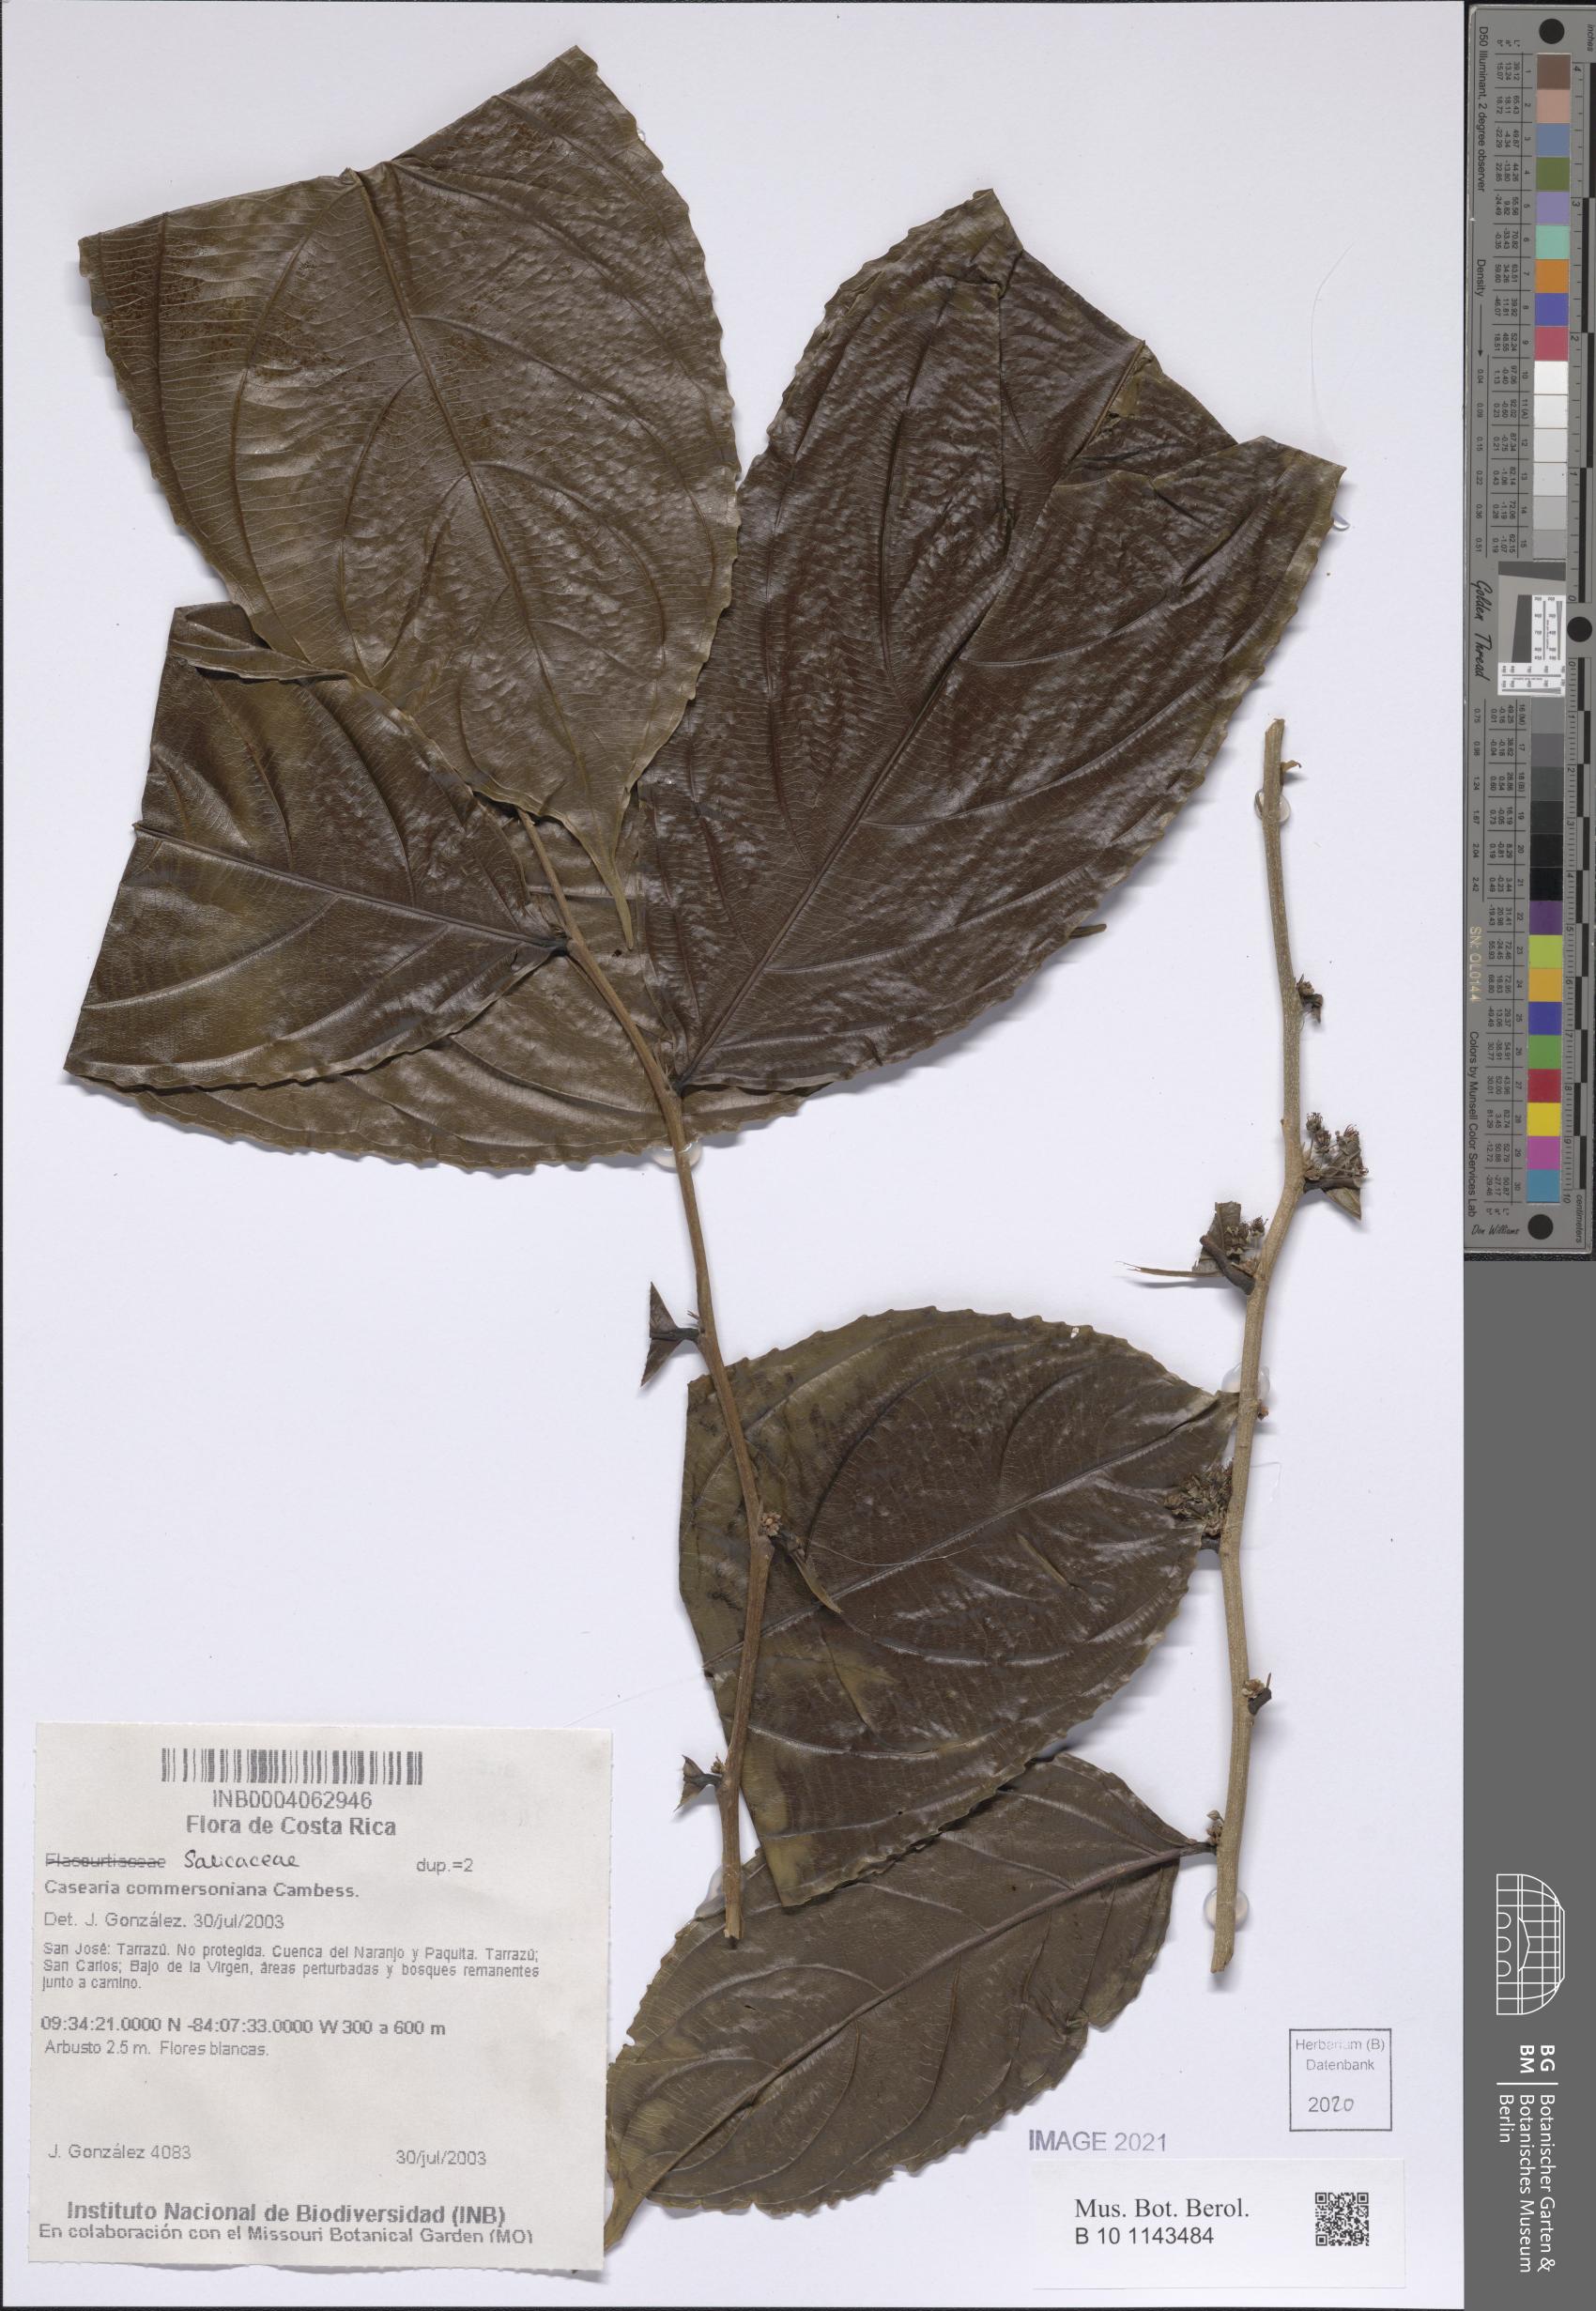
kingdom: Plantae
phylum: Tracheophyta
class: Magnoliopsida
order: Malpighiales
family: Salicaceae
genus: Piparea
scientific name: Piparea dentata
